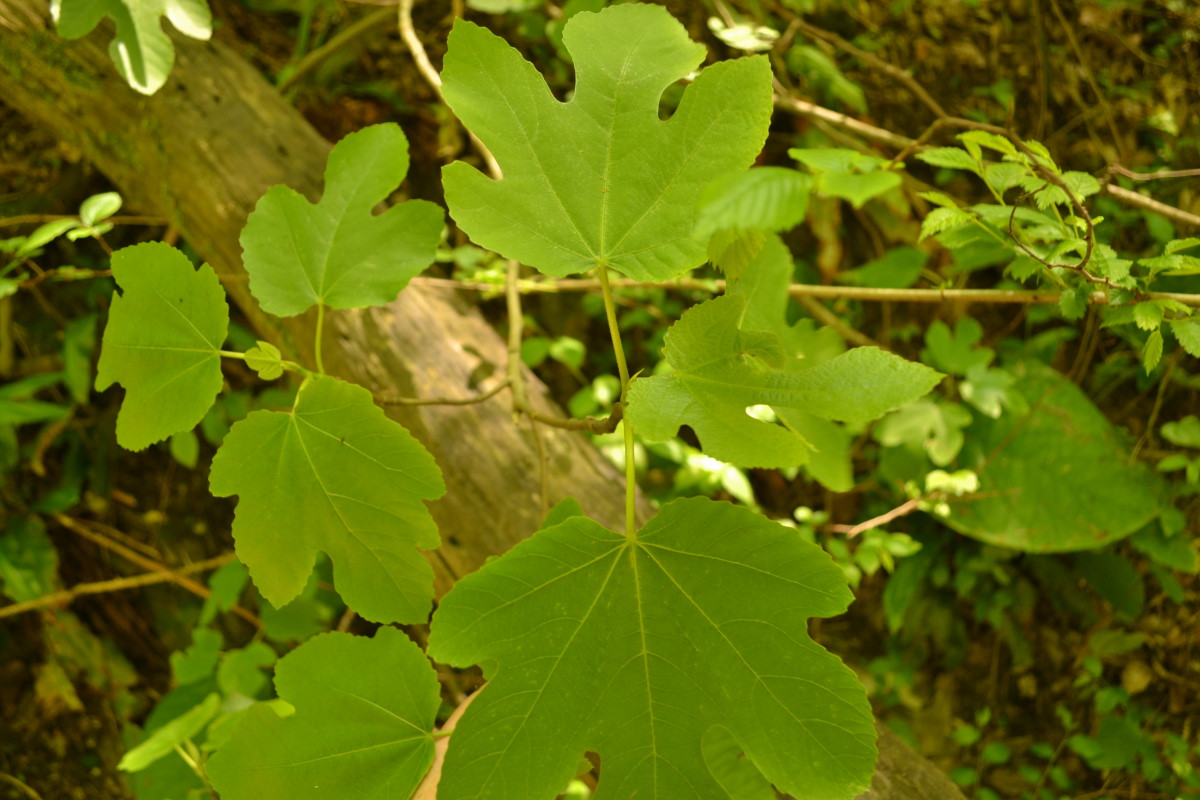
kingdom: Plantae
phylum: Tracheophyta
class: Magnoliopsida
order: Rosales
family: Moraceae
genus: Ficus
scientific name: Ficus carica
